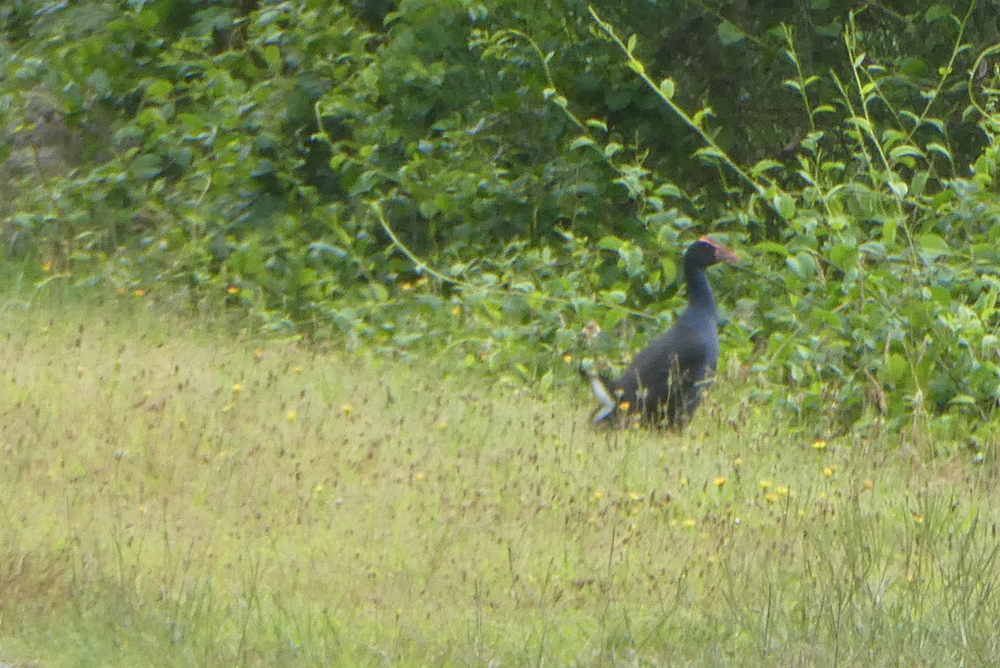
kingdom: Animalia
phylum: Chordata
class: Aves
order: Gruiformes
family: Rallidae
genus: Porphyrio
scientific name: Porphyrio porphyrio
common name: Purple swamphen
